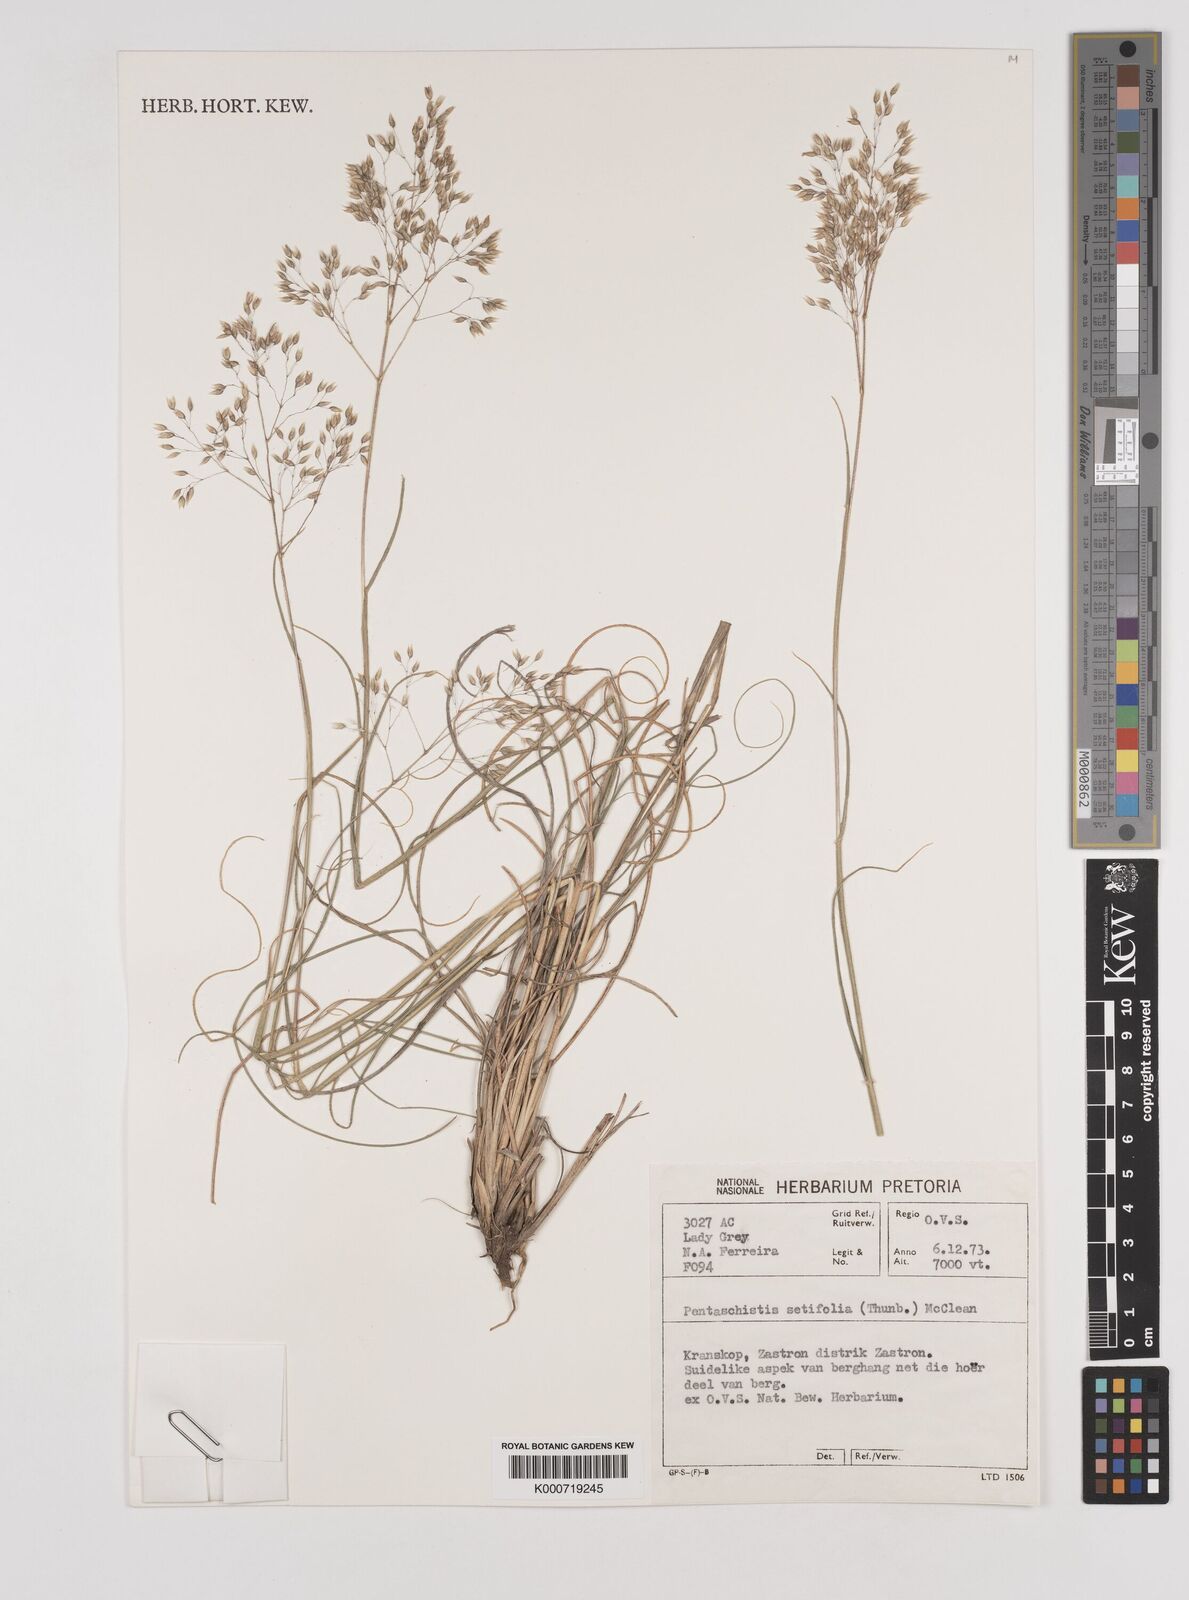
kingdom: Plantae
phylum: Tracheophyta
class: Liliopsida
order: Poales
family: Poaceae
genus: Pentameris
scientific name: Pentameris setifolia
